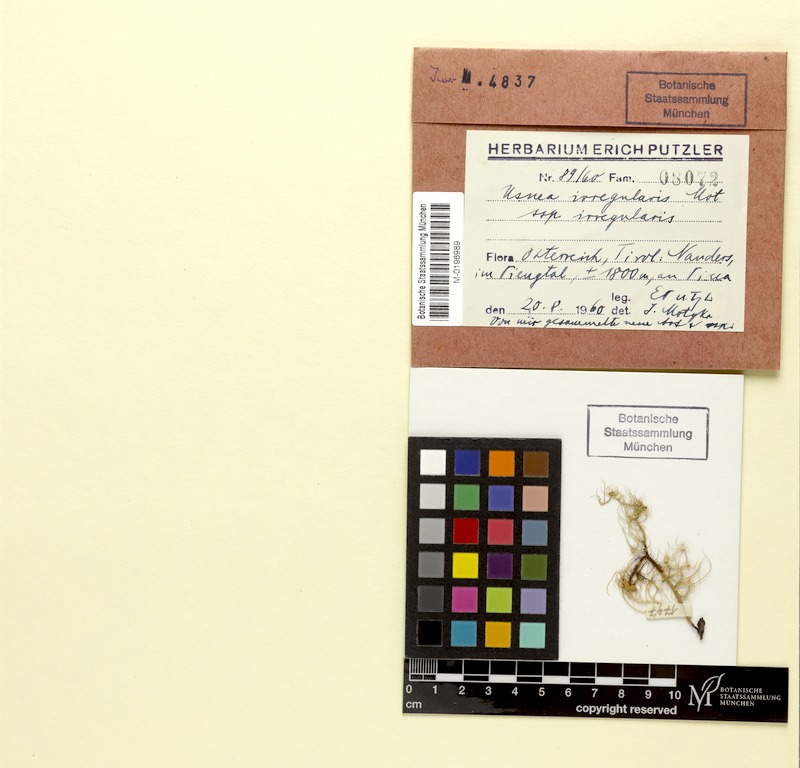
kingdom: Fungi
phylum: Ascomycota
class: Lecanoromycetes
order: Lecanorales
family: Parmeliaceae
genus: Usnea
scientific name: Usnea
